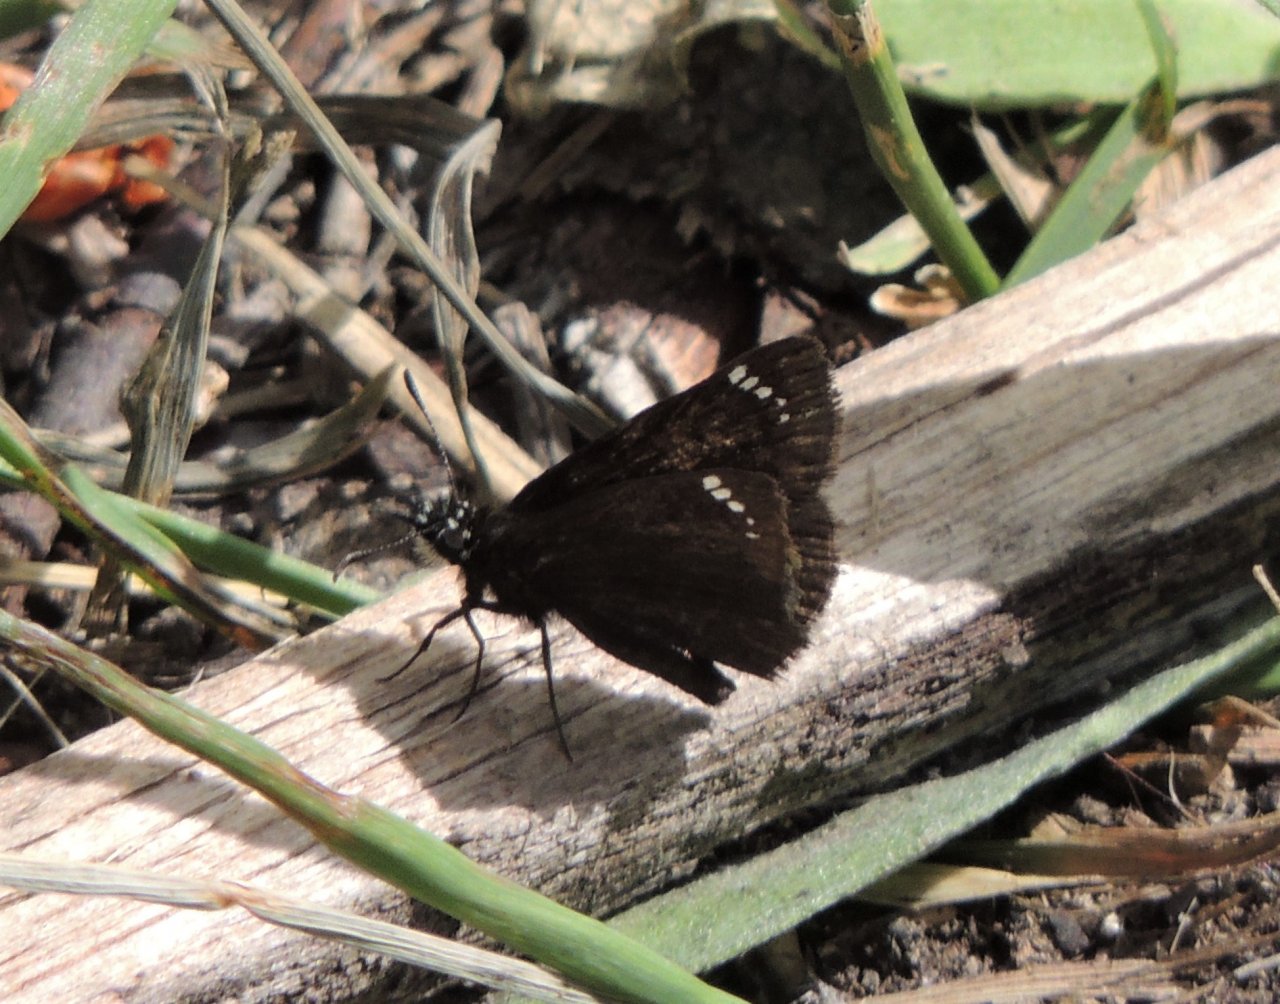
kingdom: Animalia
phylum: Arthropoda
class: Insecta
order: Lepidoptera
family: Hesperiidae
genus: Pholisora
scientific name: Pholisora catullus
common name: Common Sootywing
